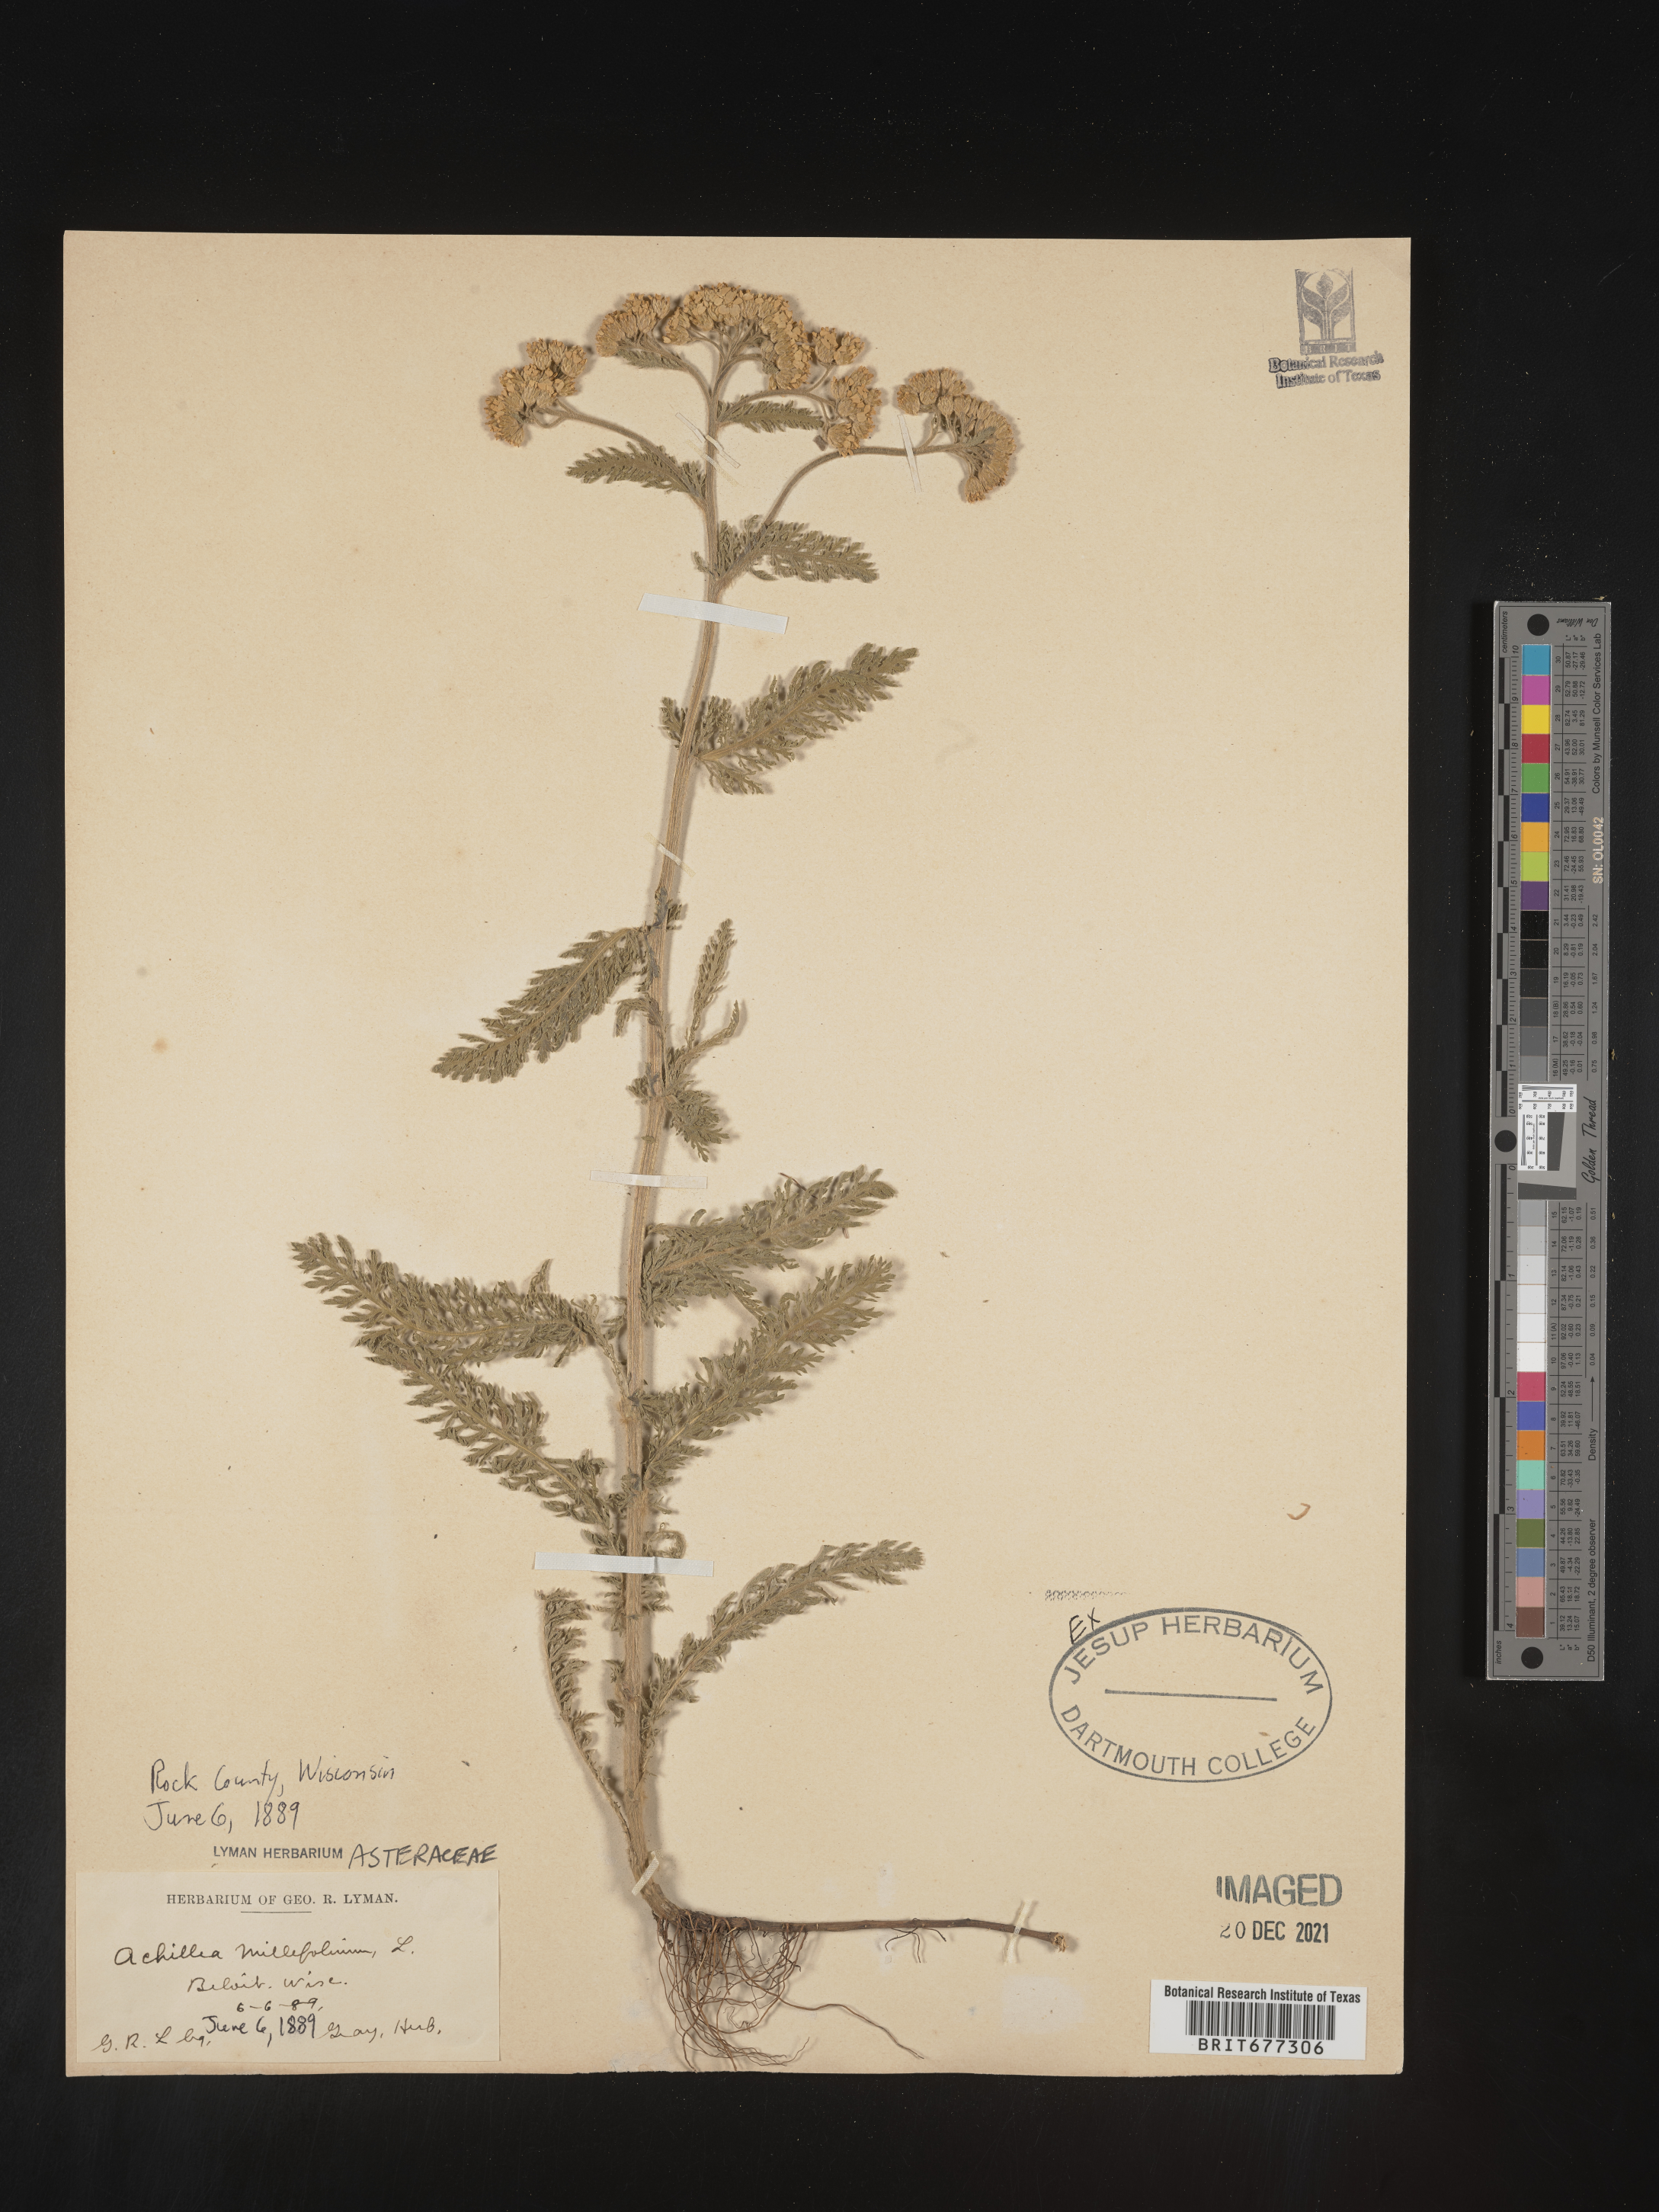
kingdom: Plantae
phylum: Tracheophyta
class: Magnoliopsida
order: Asterales
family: Asteraceae
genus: Achillea
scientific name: Achillea millefolium
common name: Yarrow
